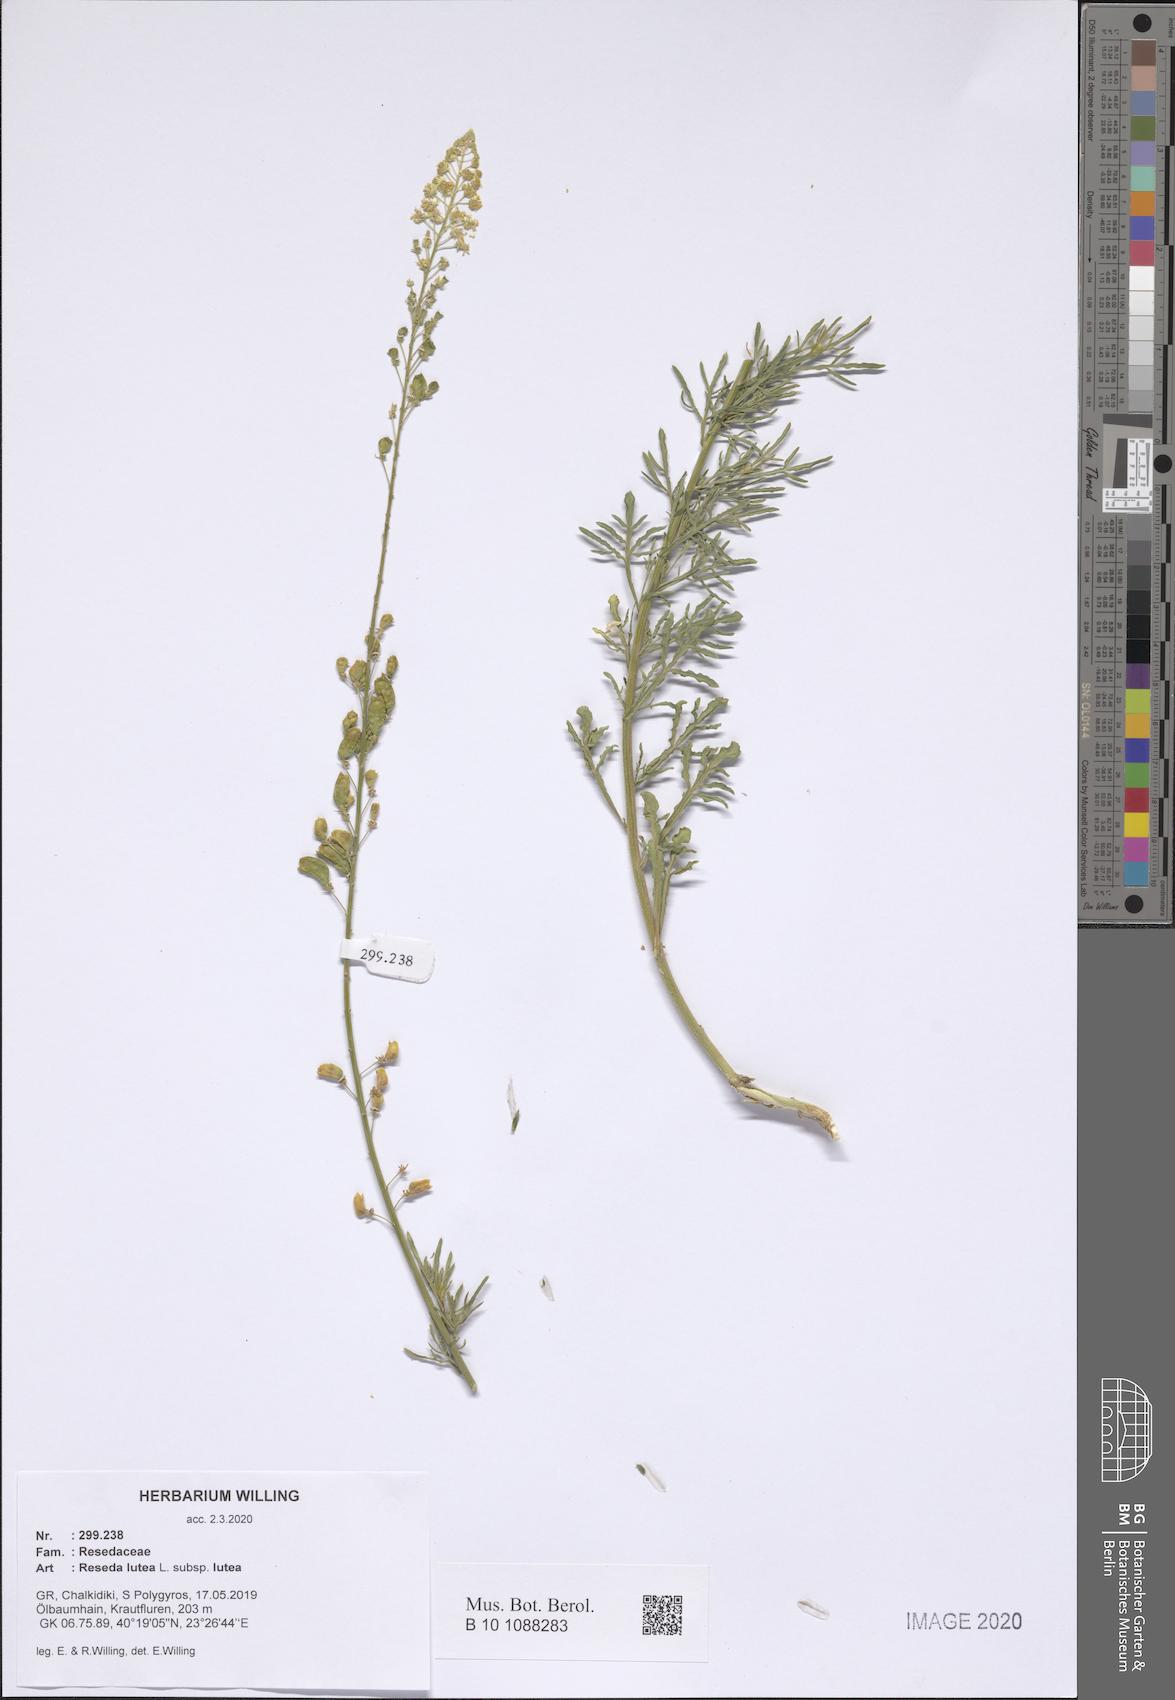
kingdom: Plantae
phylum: Tracheophyta
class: Magnoliopsida
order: Brassicales
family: Resedaceae
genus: Reseda
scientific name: Reseda lutea
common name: Wild mignonette
